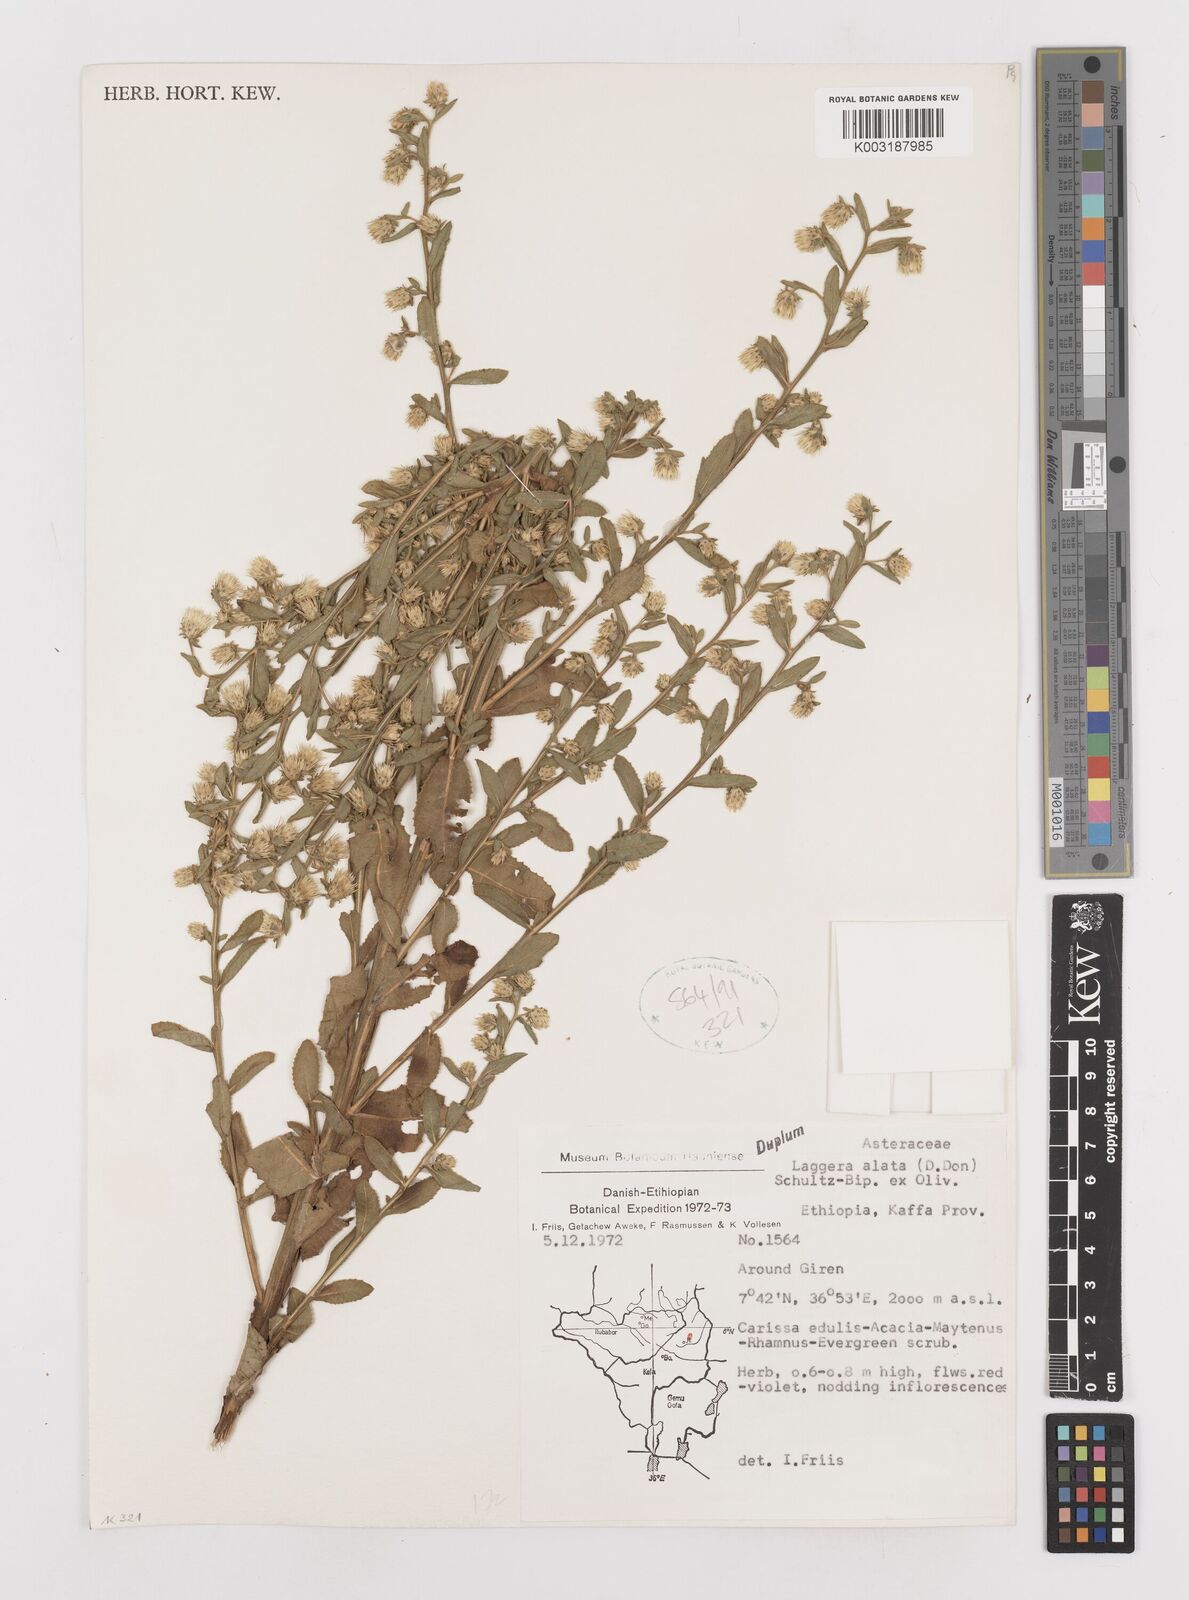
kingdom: Plantae
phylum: Tracheophyta
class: Magnoliopsida
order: Asterales
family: Asteraceae
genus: Laggera
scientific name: Laggera crispata
